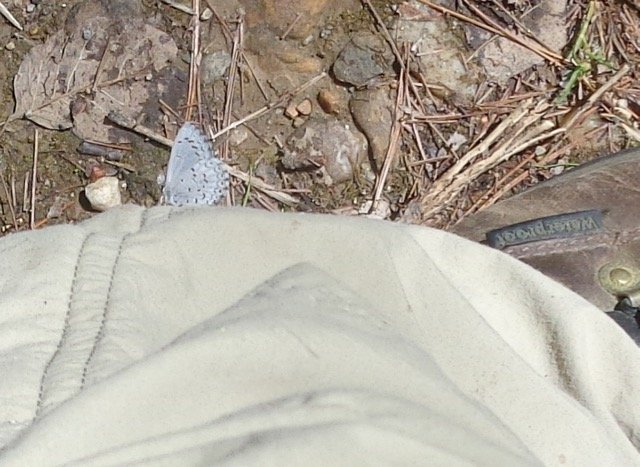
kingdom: Animalia
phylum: Arthropoda
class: Insecta
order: Lepidoptera
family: Lycaenidae
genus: Celastrina
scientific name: Celastrina lucia
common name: Northern Spring Azure
